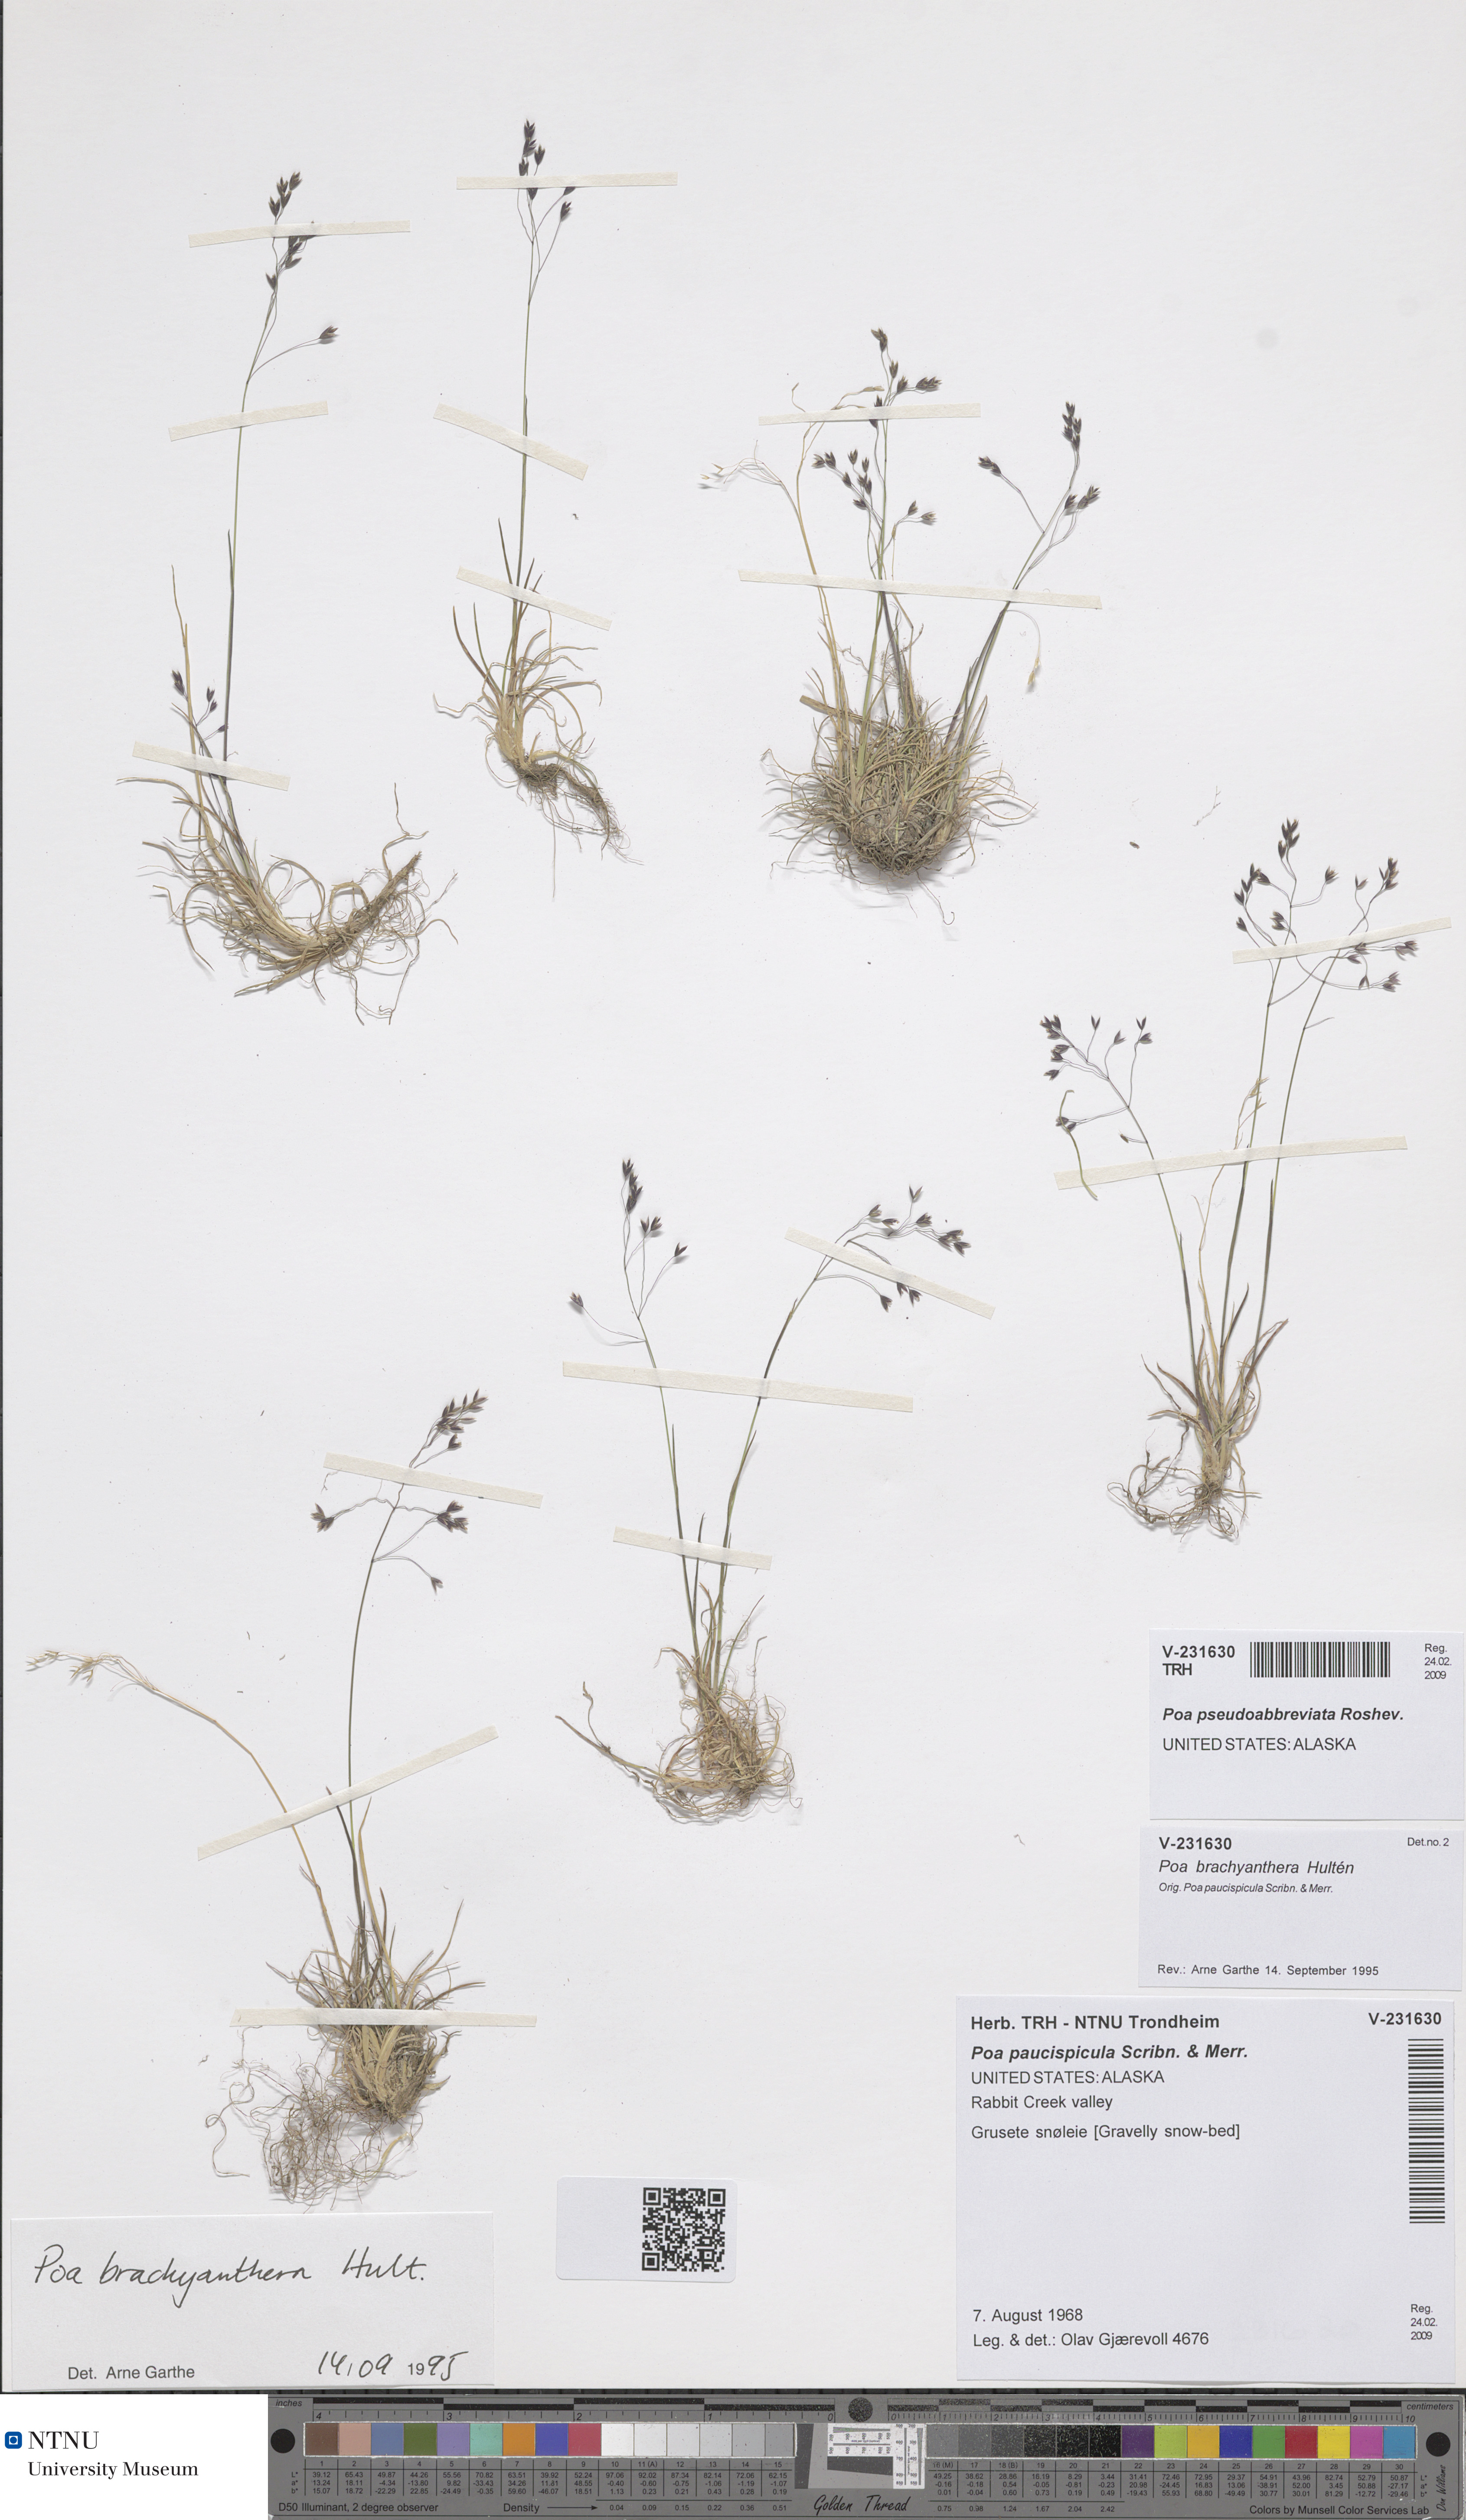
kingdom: Plantae
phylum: Tracheophyta
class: Liliopsida
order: Poales
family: Poaceae
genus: Poa
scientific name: Poa pseudoabbreviata
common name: Polar bluegrass
